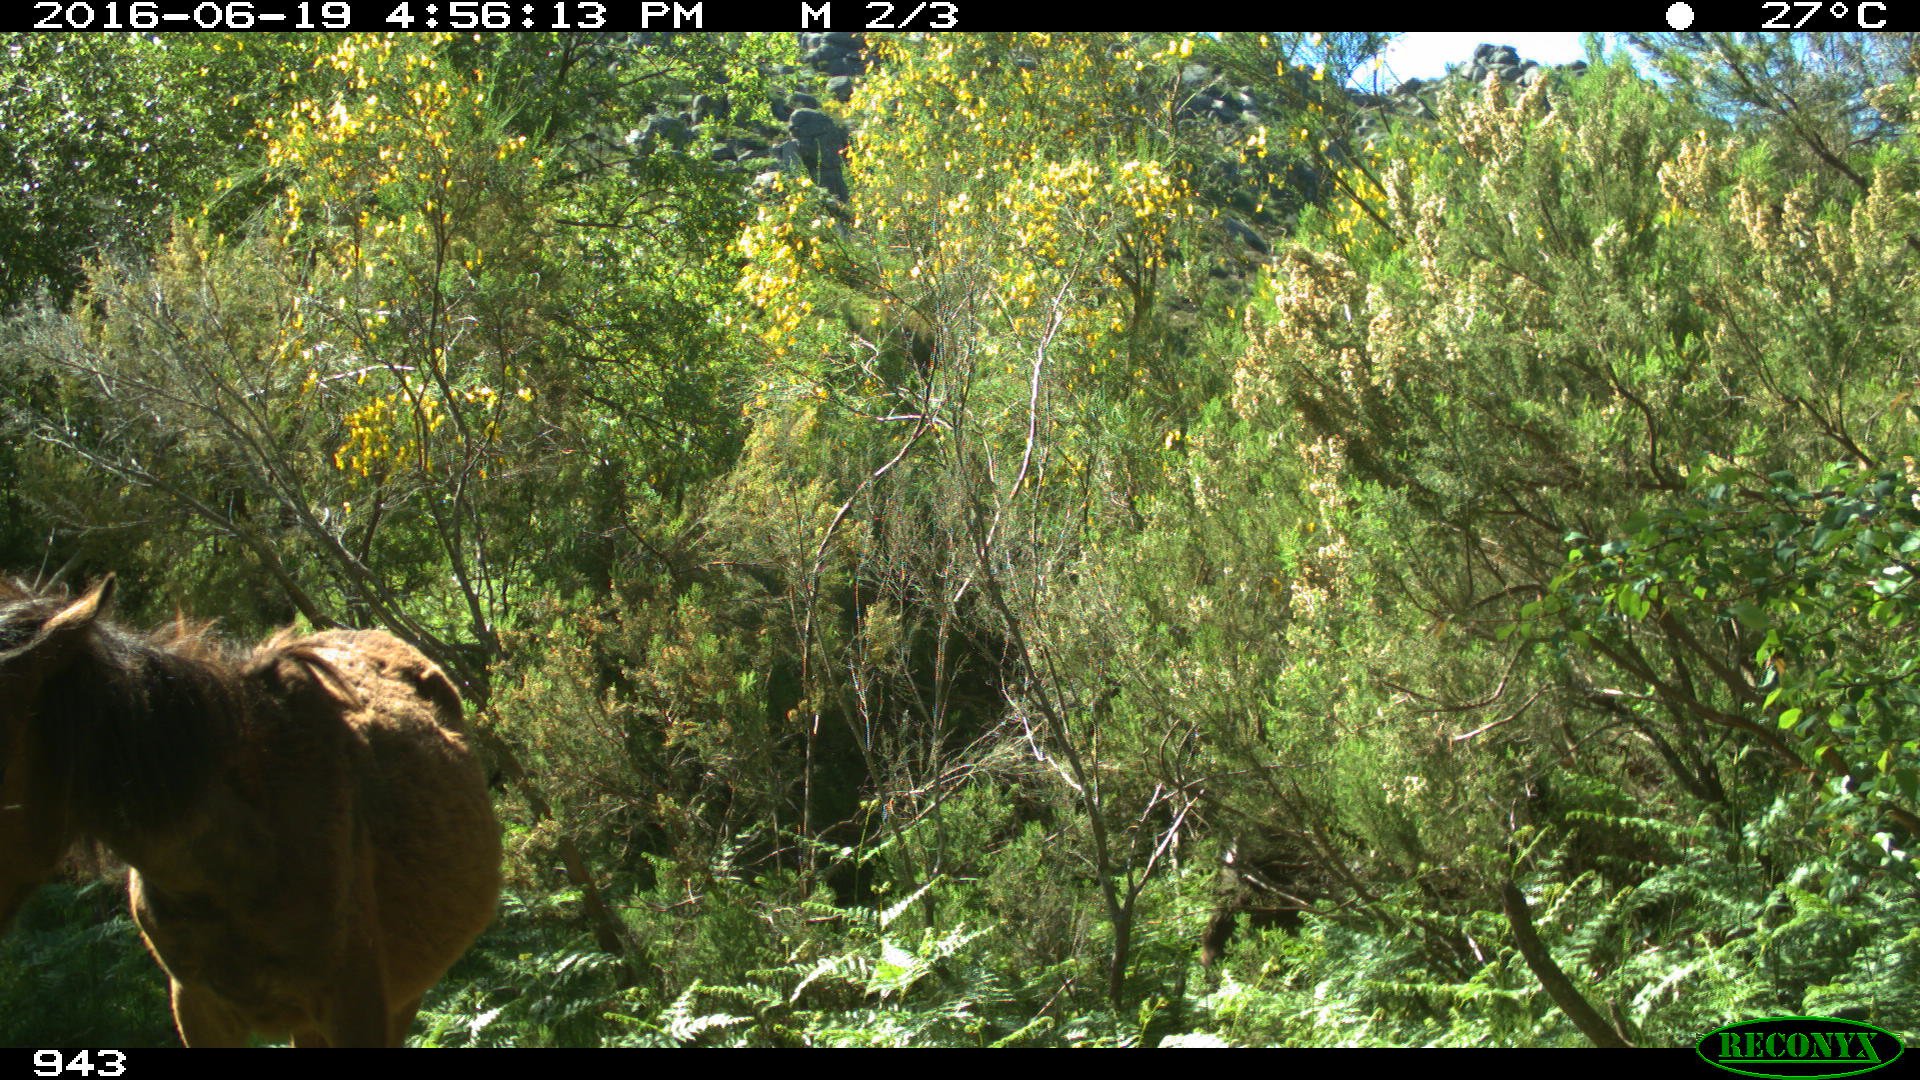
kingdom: Animalia
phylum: Chordata
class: Mammalia
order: Perissodactyla
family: Equidae
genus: Equus
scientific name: Equus caballus
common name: Horse
